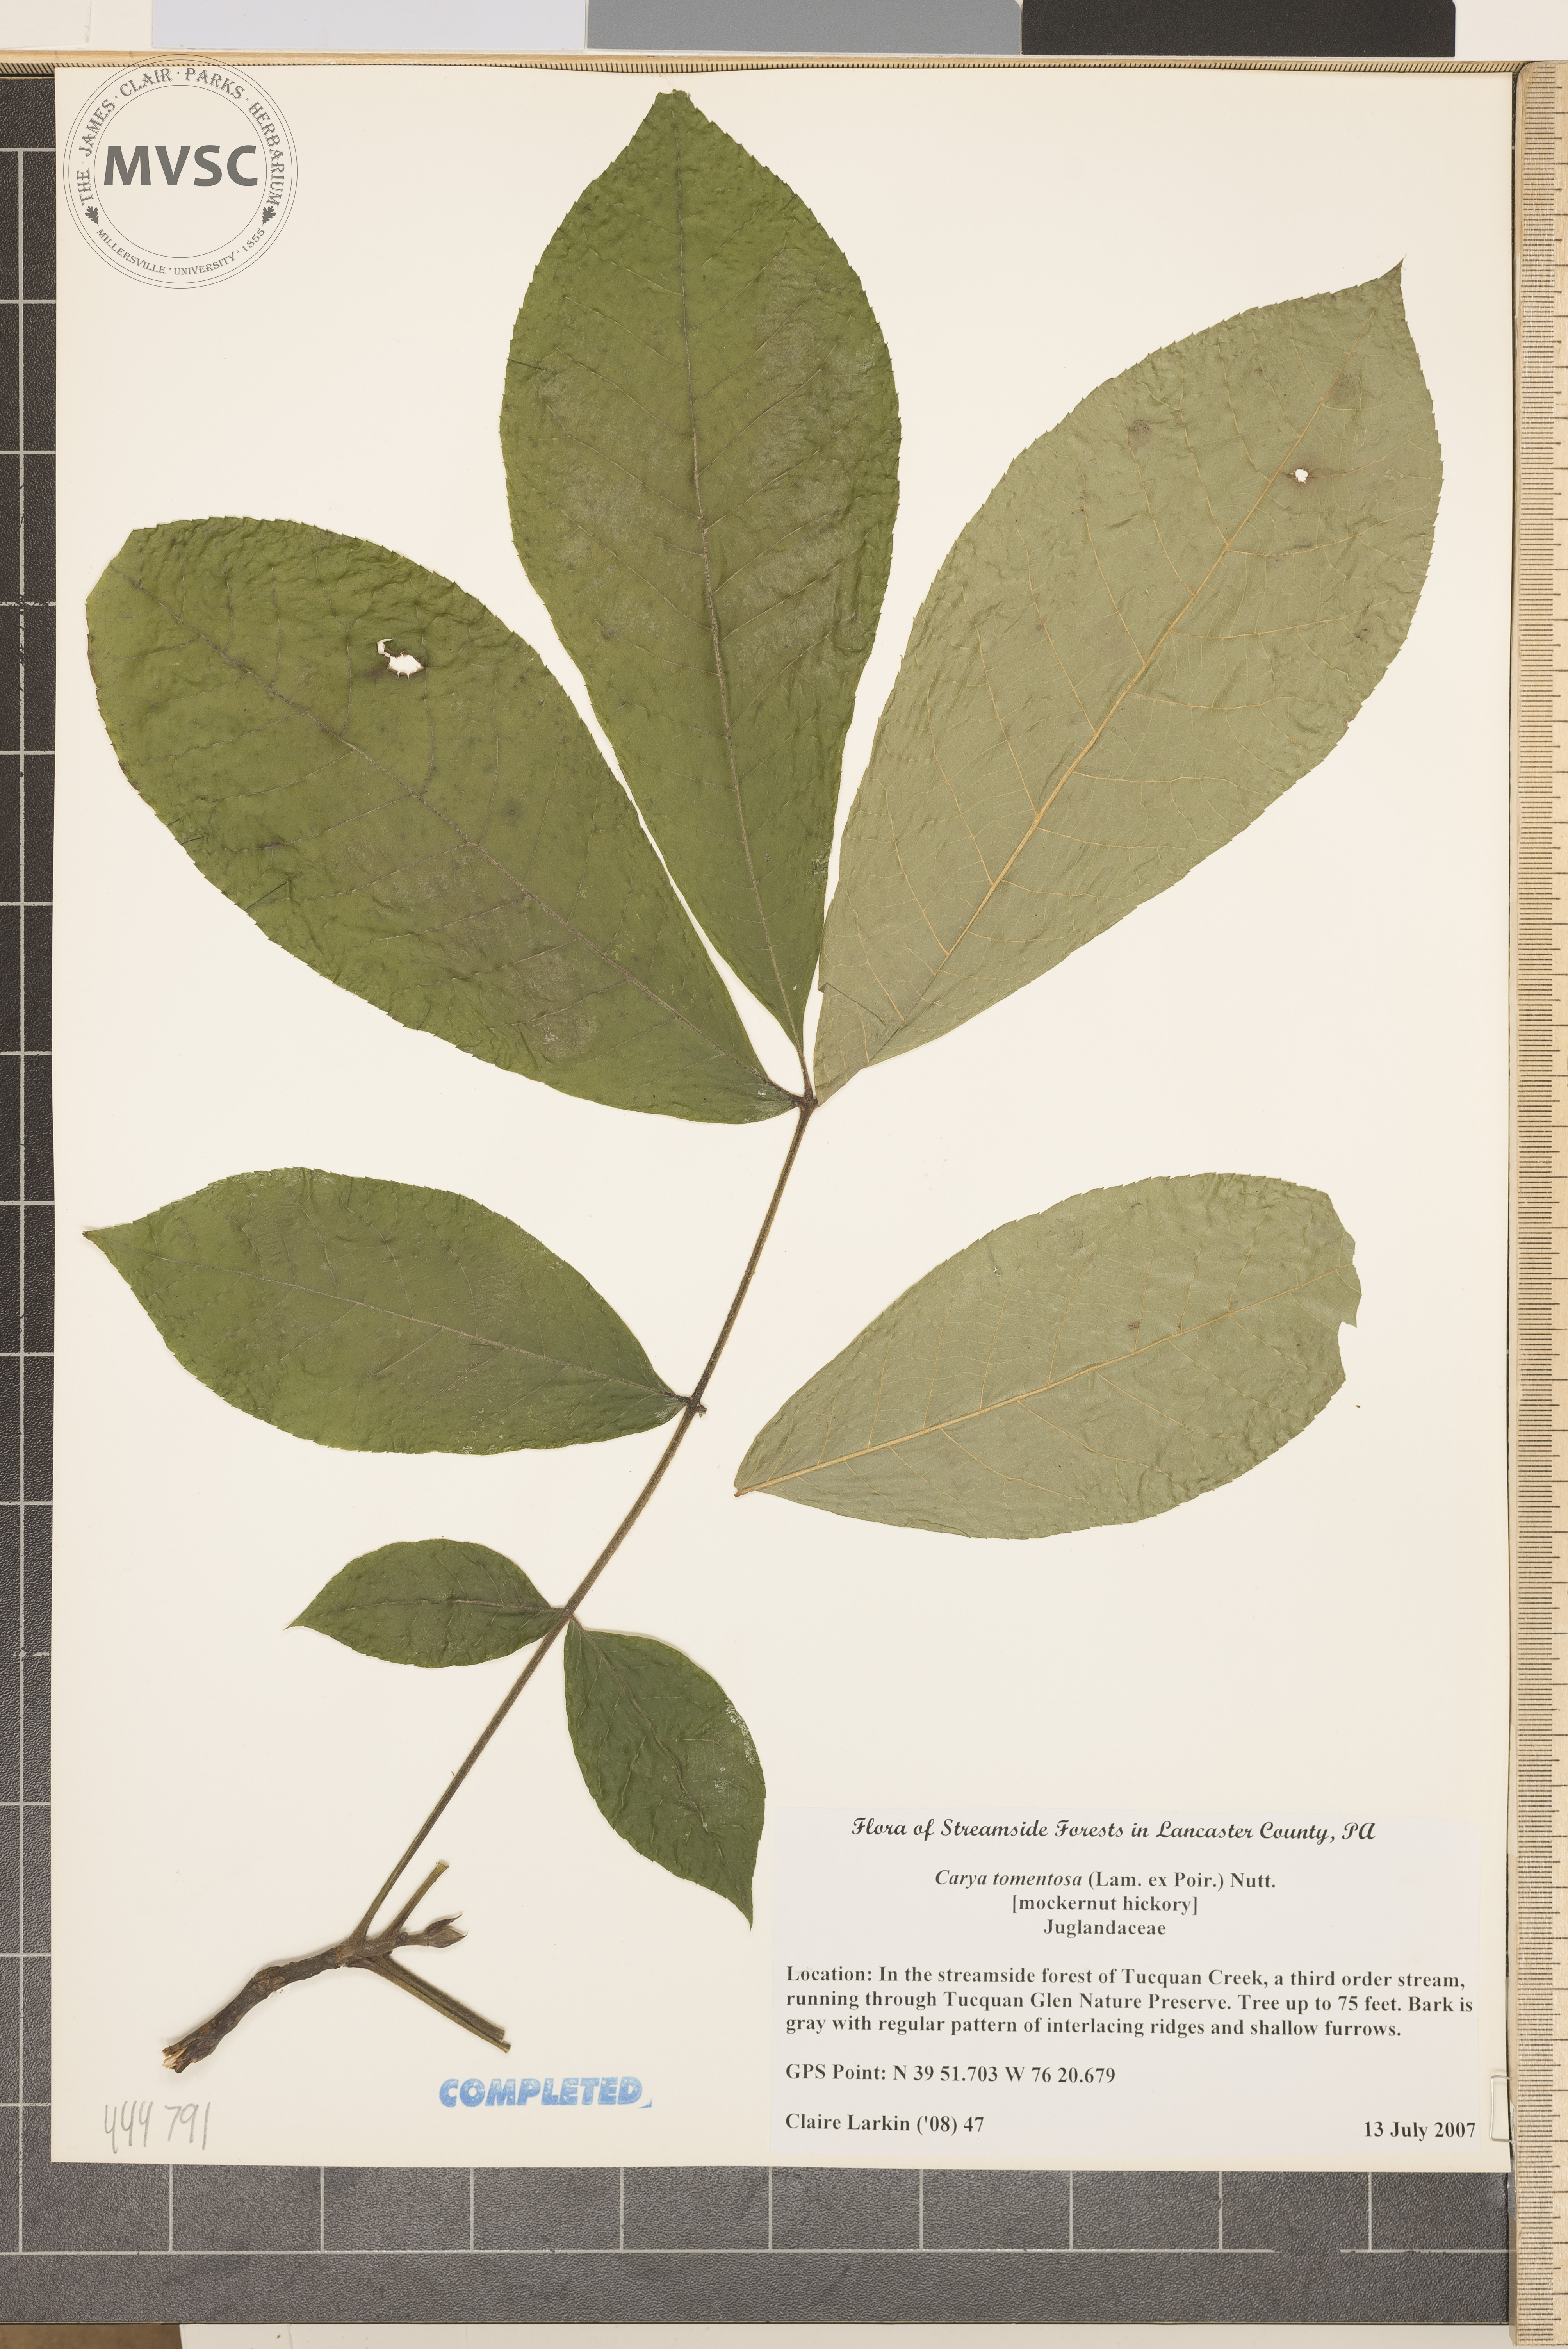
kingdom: Plantae
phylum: Tracheophyta
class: Magnoliopsida
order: Fagales
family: Juglandaceae
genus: Carya
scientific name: Carya alba
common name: Mockernut hickory
